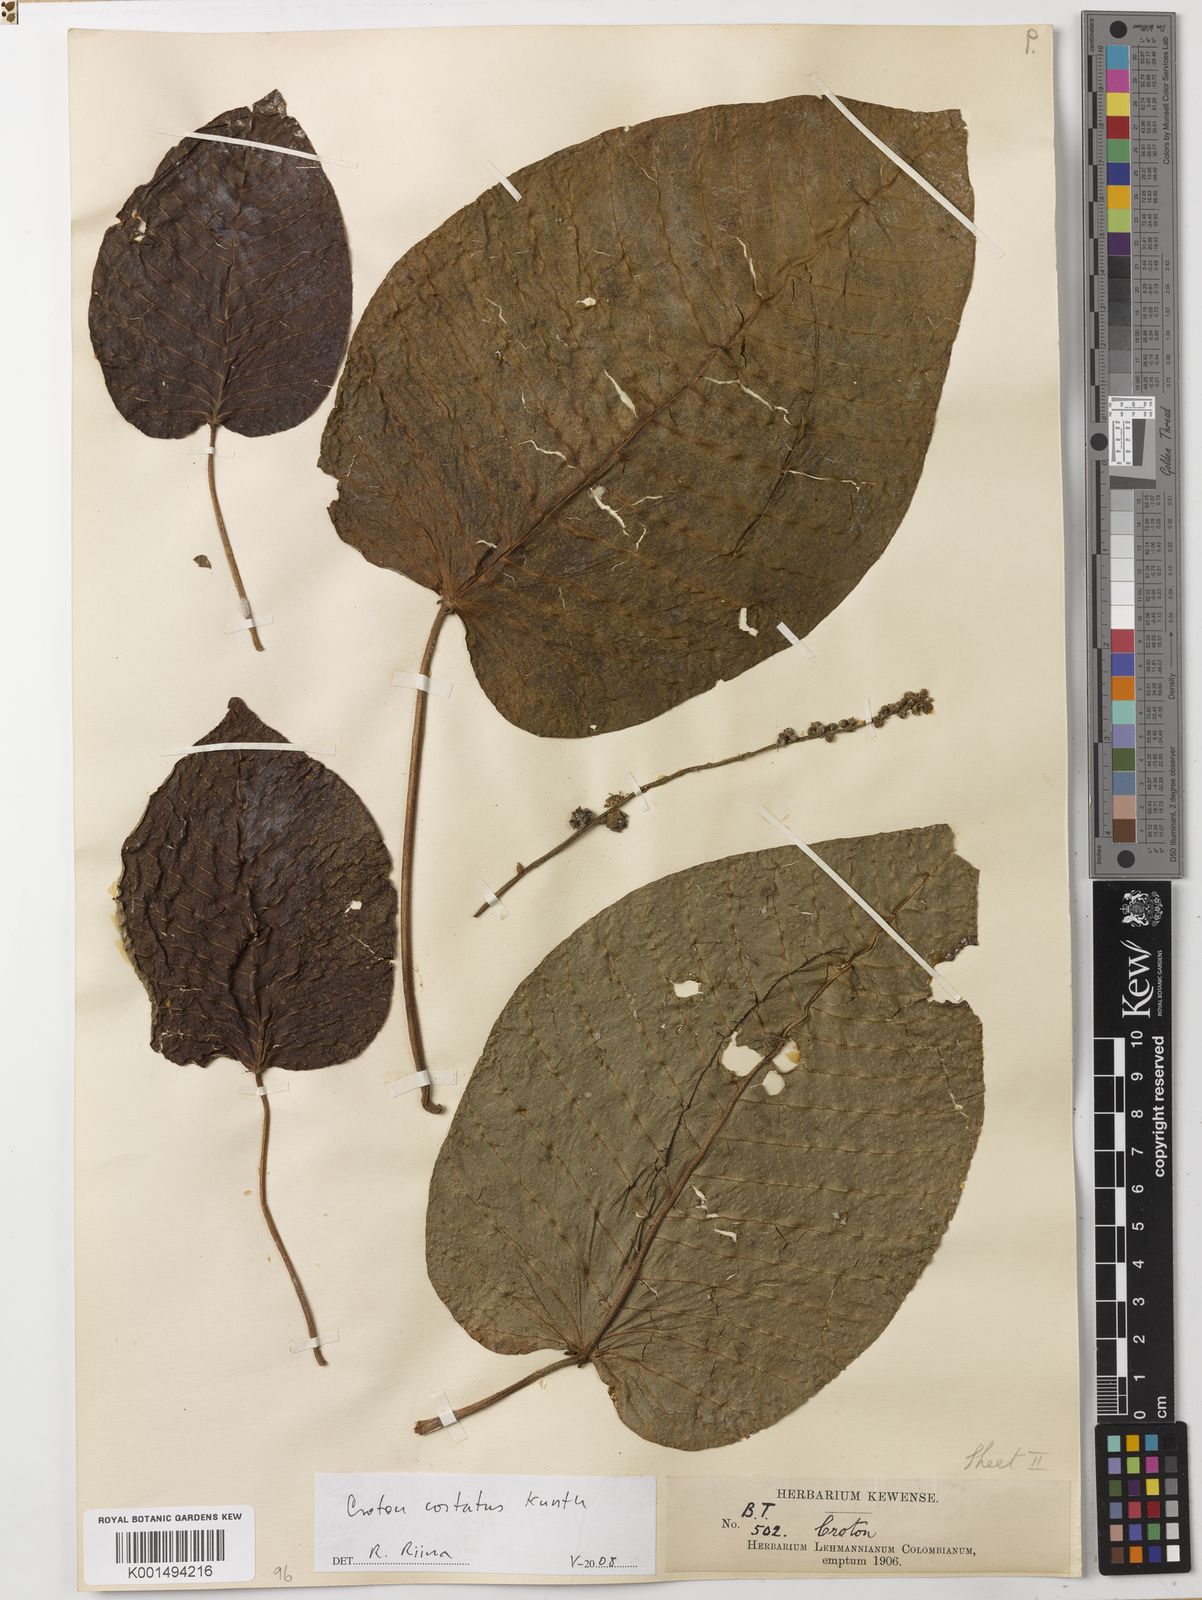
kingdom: Plantae
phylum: Tracheophyta
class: Magnoliopsida
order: Malpighiales
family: Euphorbiaceae
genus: Croton
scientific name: Croton costatus
